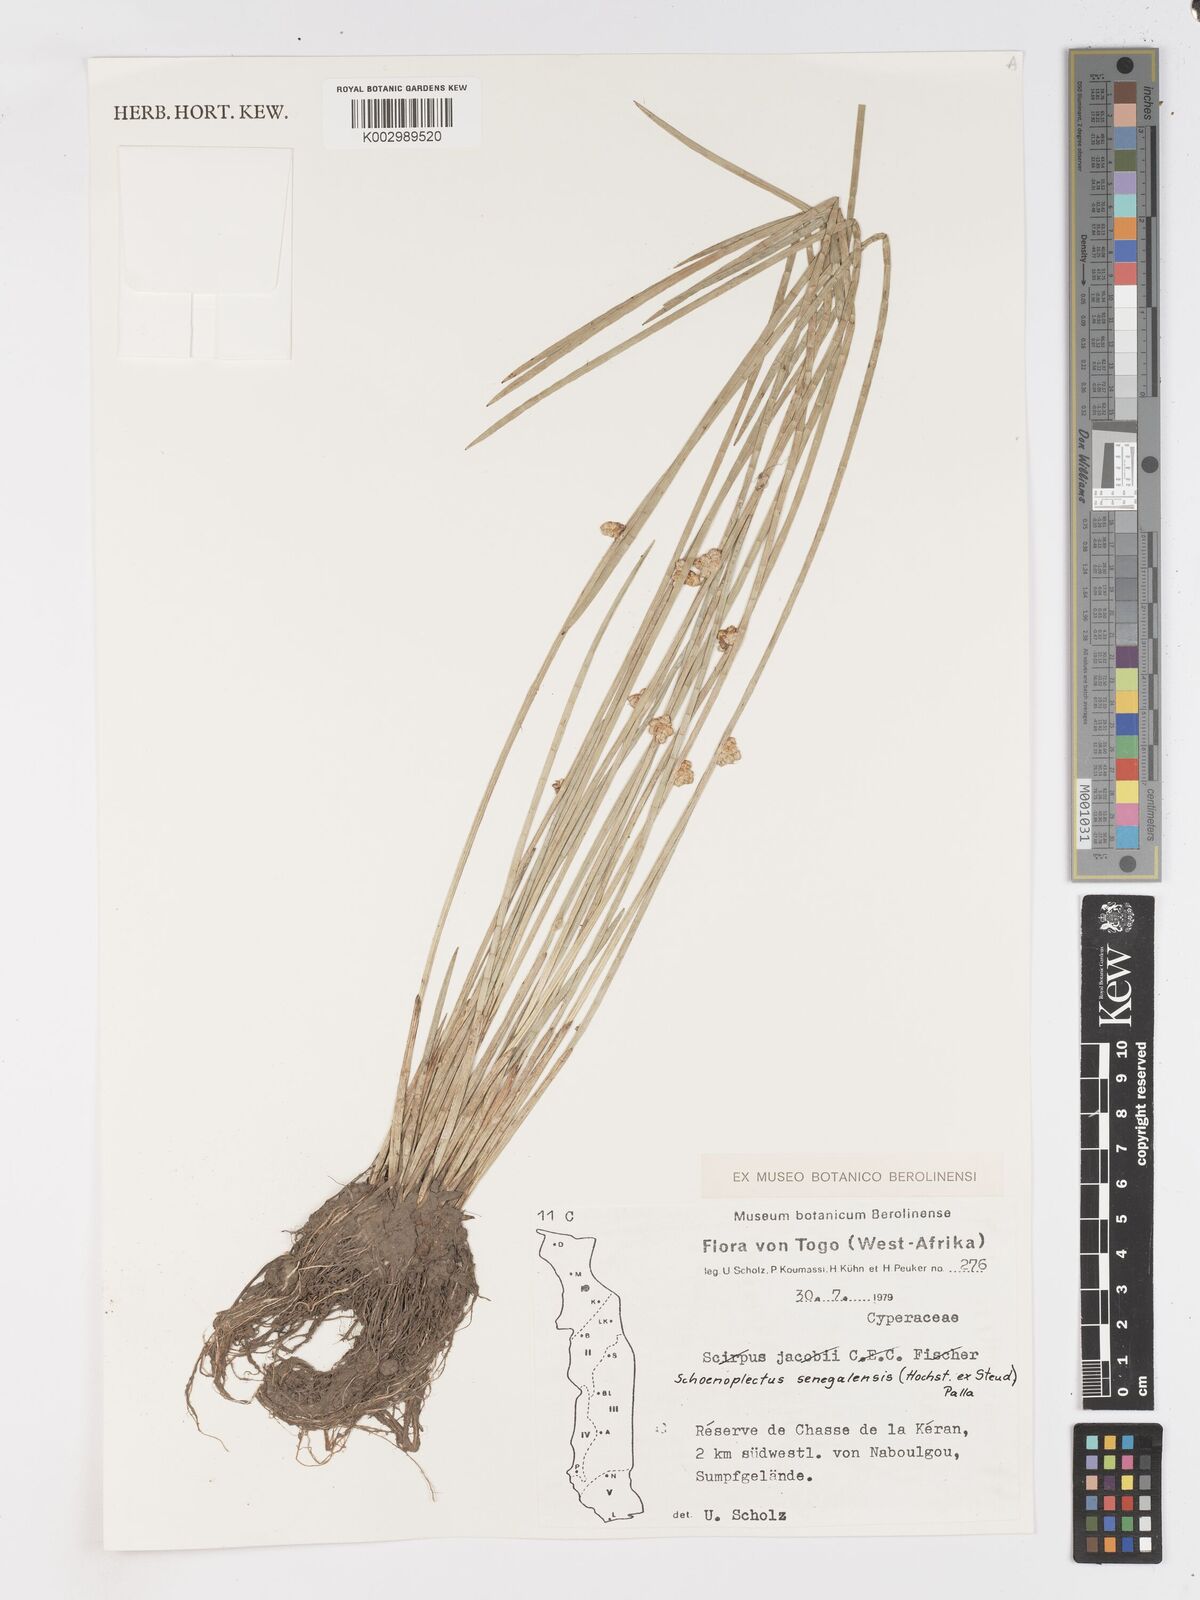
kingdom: Plantae
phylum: Tracheophyta
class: Liliopsida
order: Poales
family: Cyperaceae
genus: Schoenoplectiella
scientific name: Schoenoplectiella senegalensis
